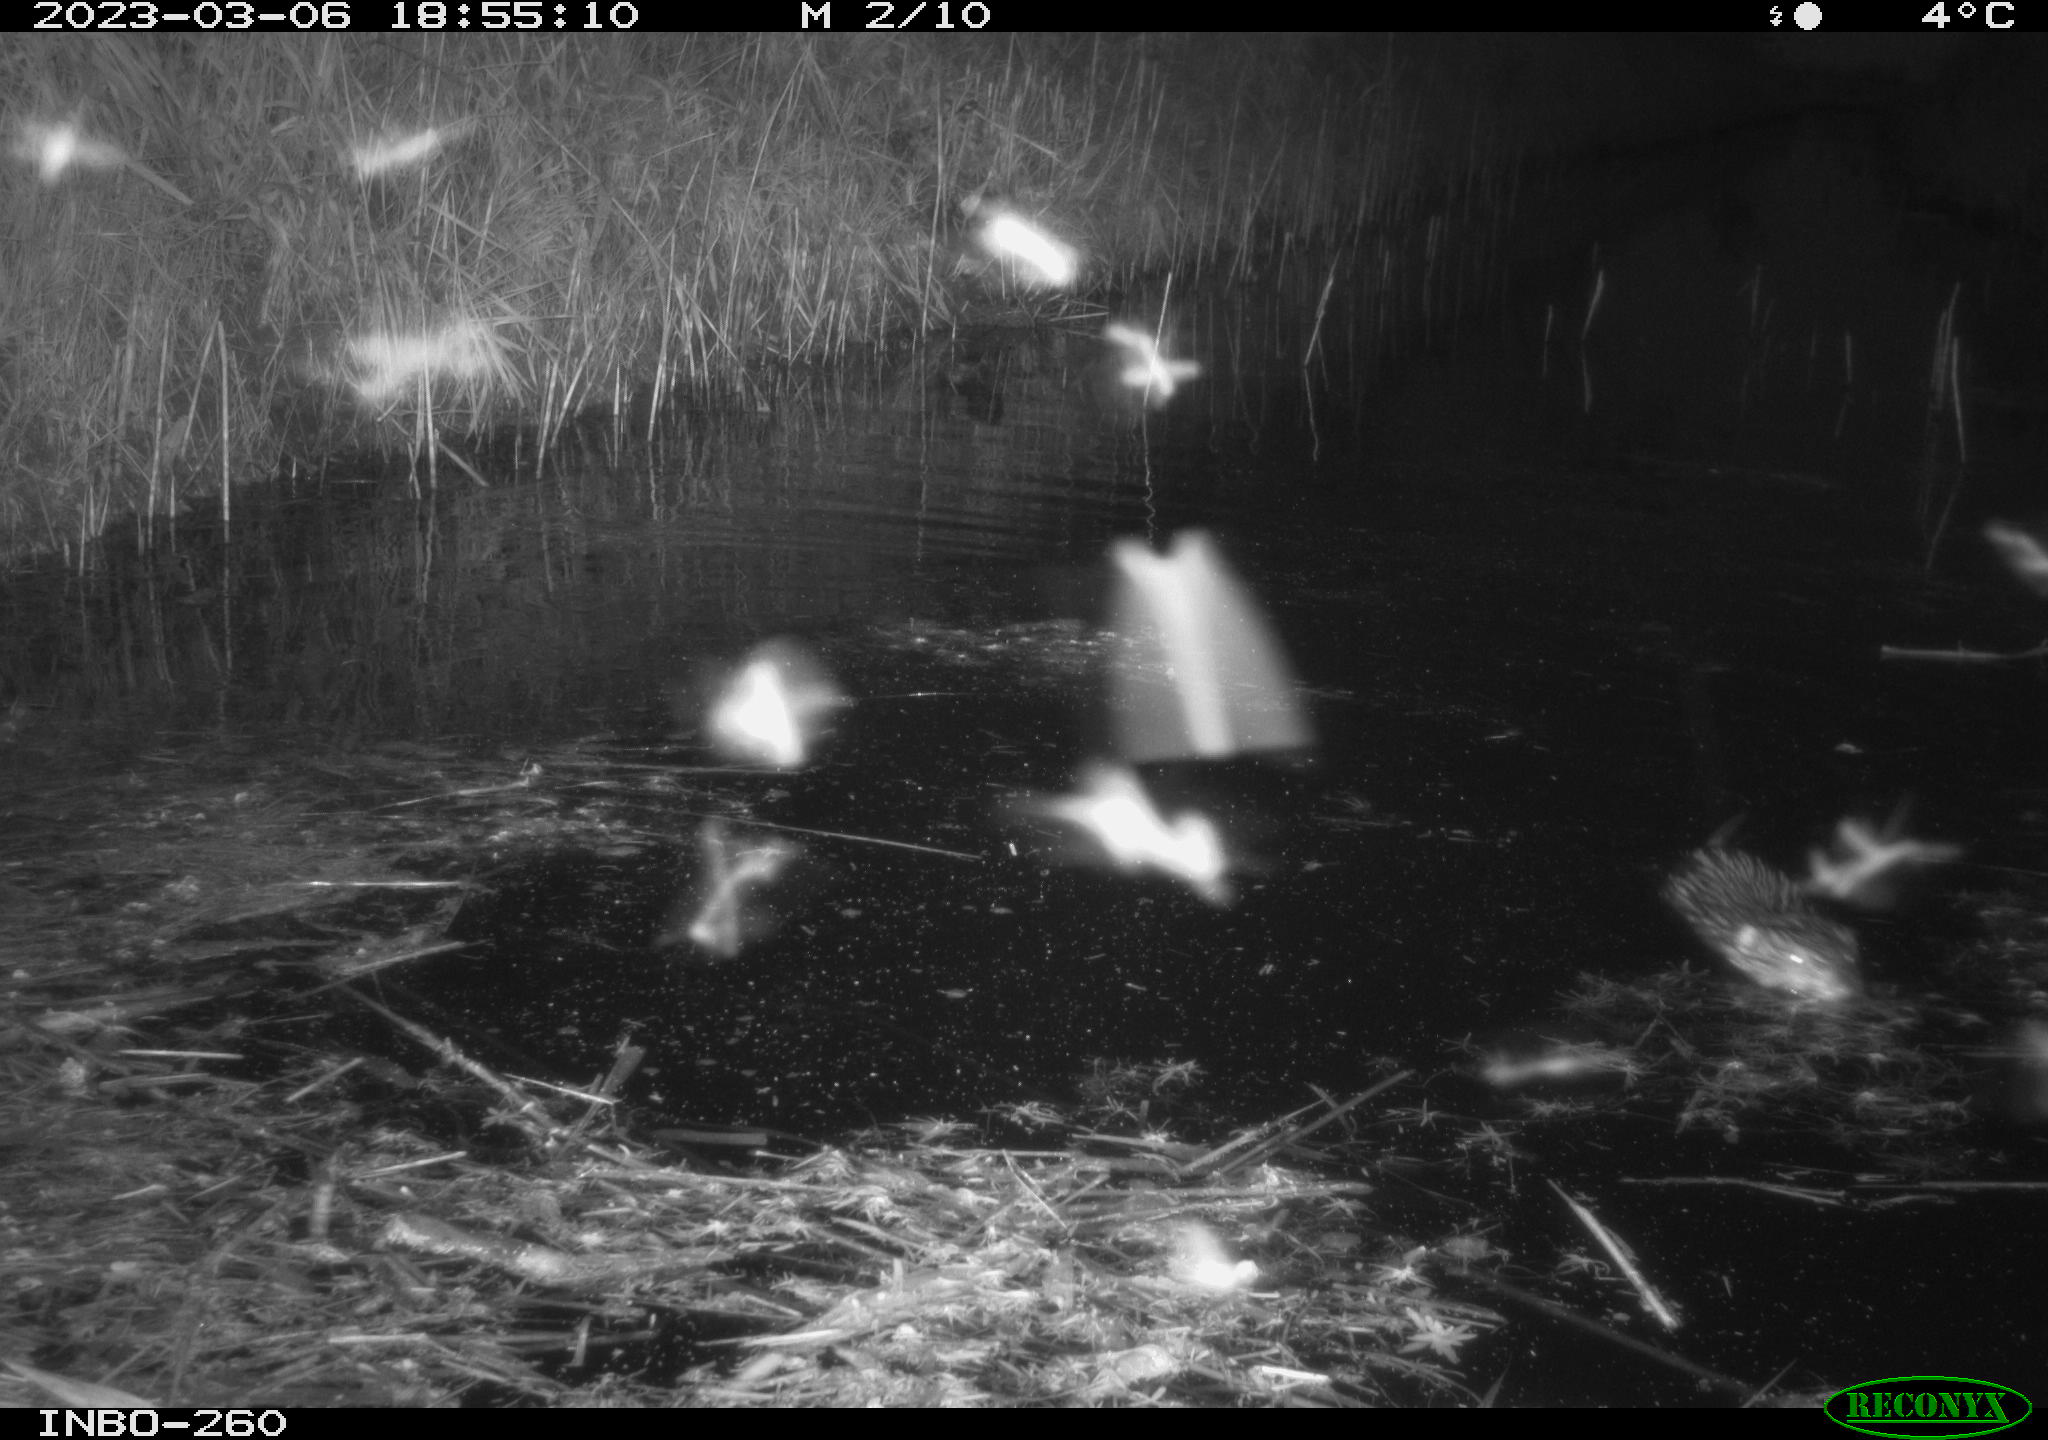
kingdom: Animalia
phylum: Chordata
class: Mammalia
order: Rodentia
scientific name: Rodentia
